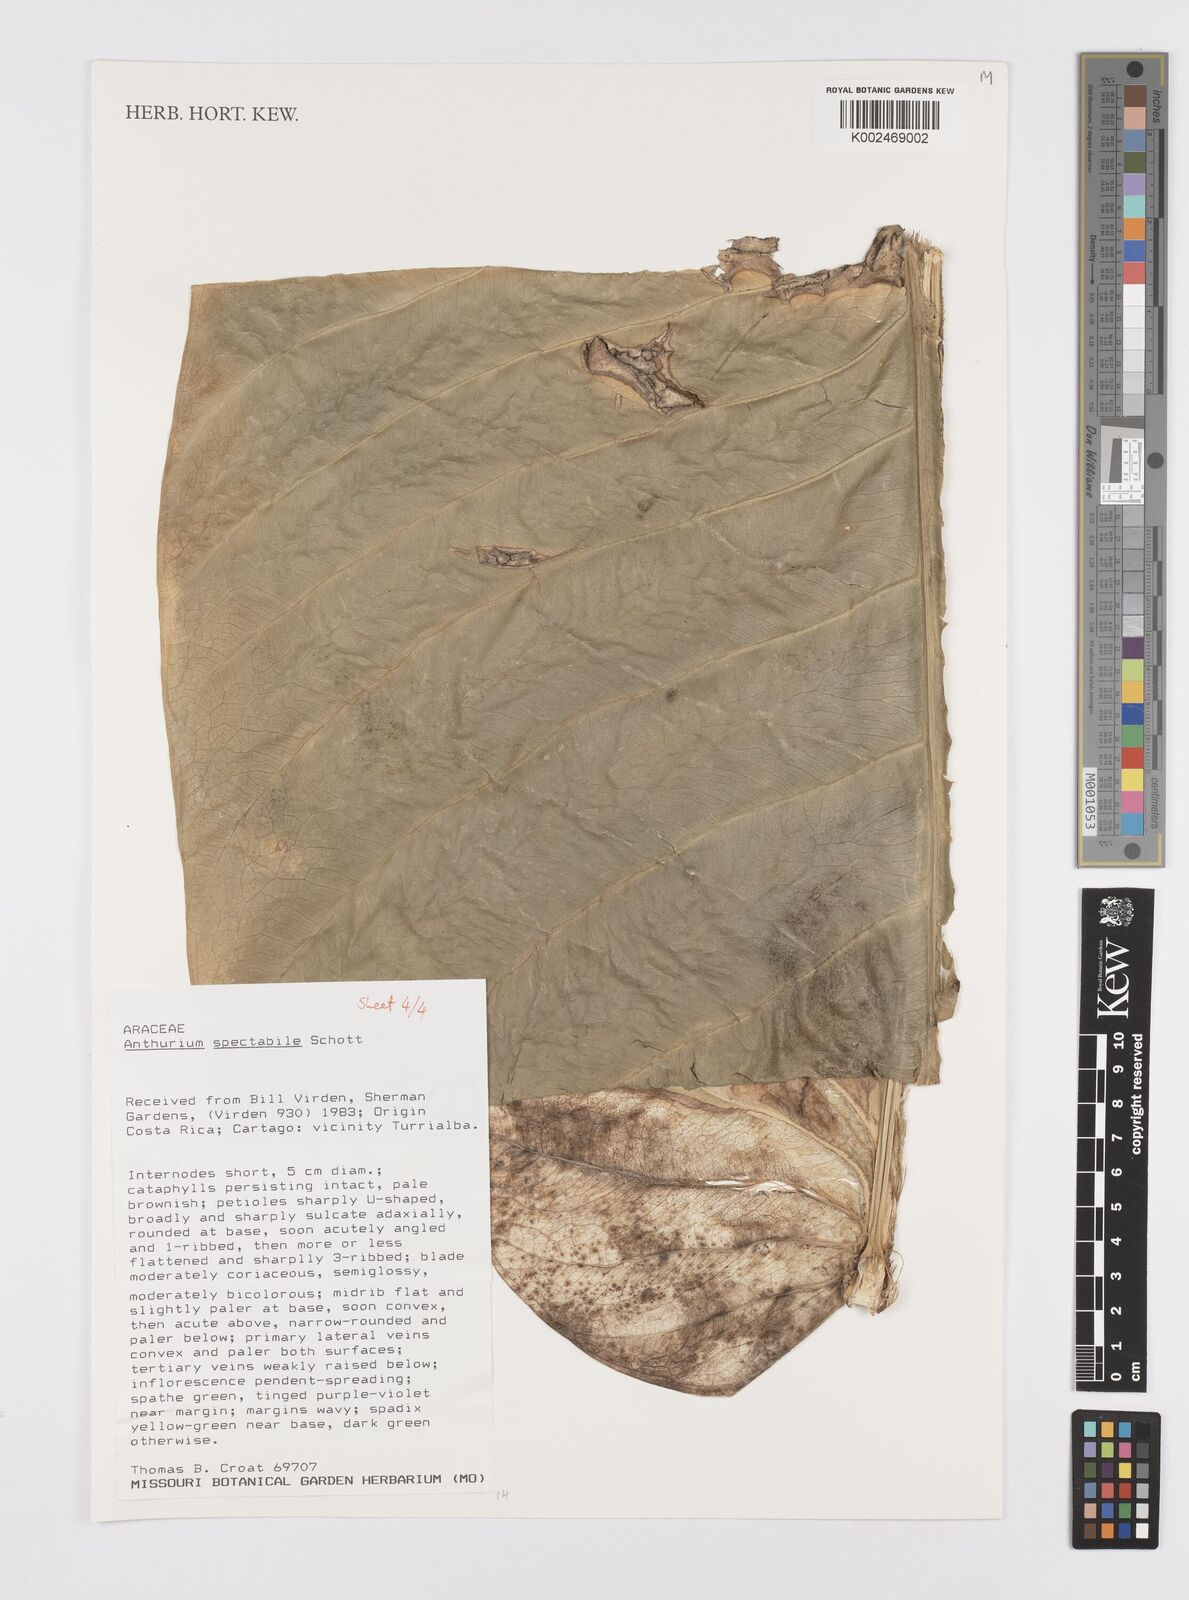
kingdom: Plantae
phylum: Tracheophyta
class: Liliopsida
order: Alismatales
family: Araceae
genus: Anthurium
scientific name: Anthurium spectabile
